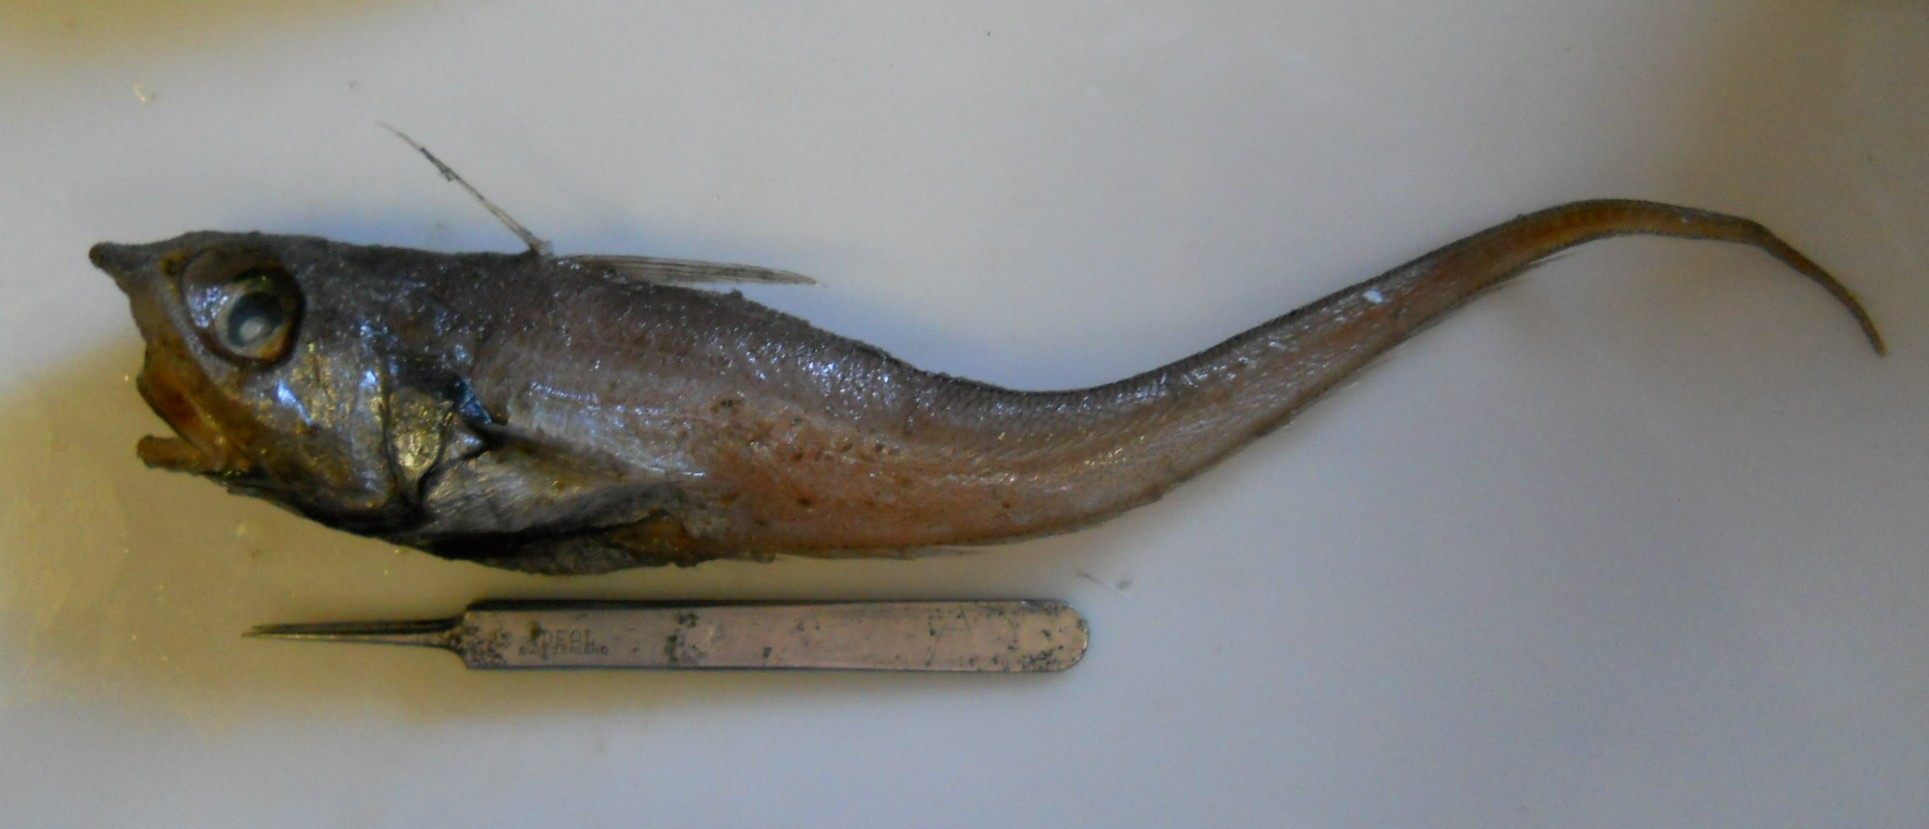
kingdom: Animalia
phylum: Chordata
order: Gadiformes
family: Macrouridae
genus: Ventrifossa
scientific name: Ventrifossa nasuta
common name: Conesnout grenadier
